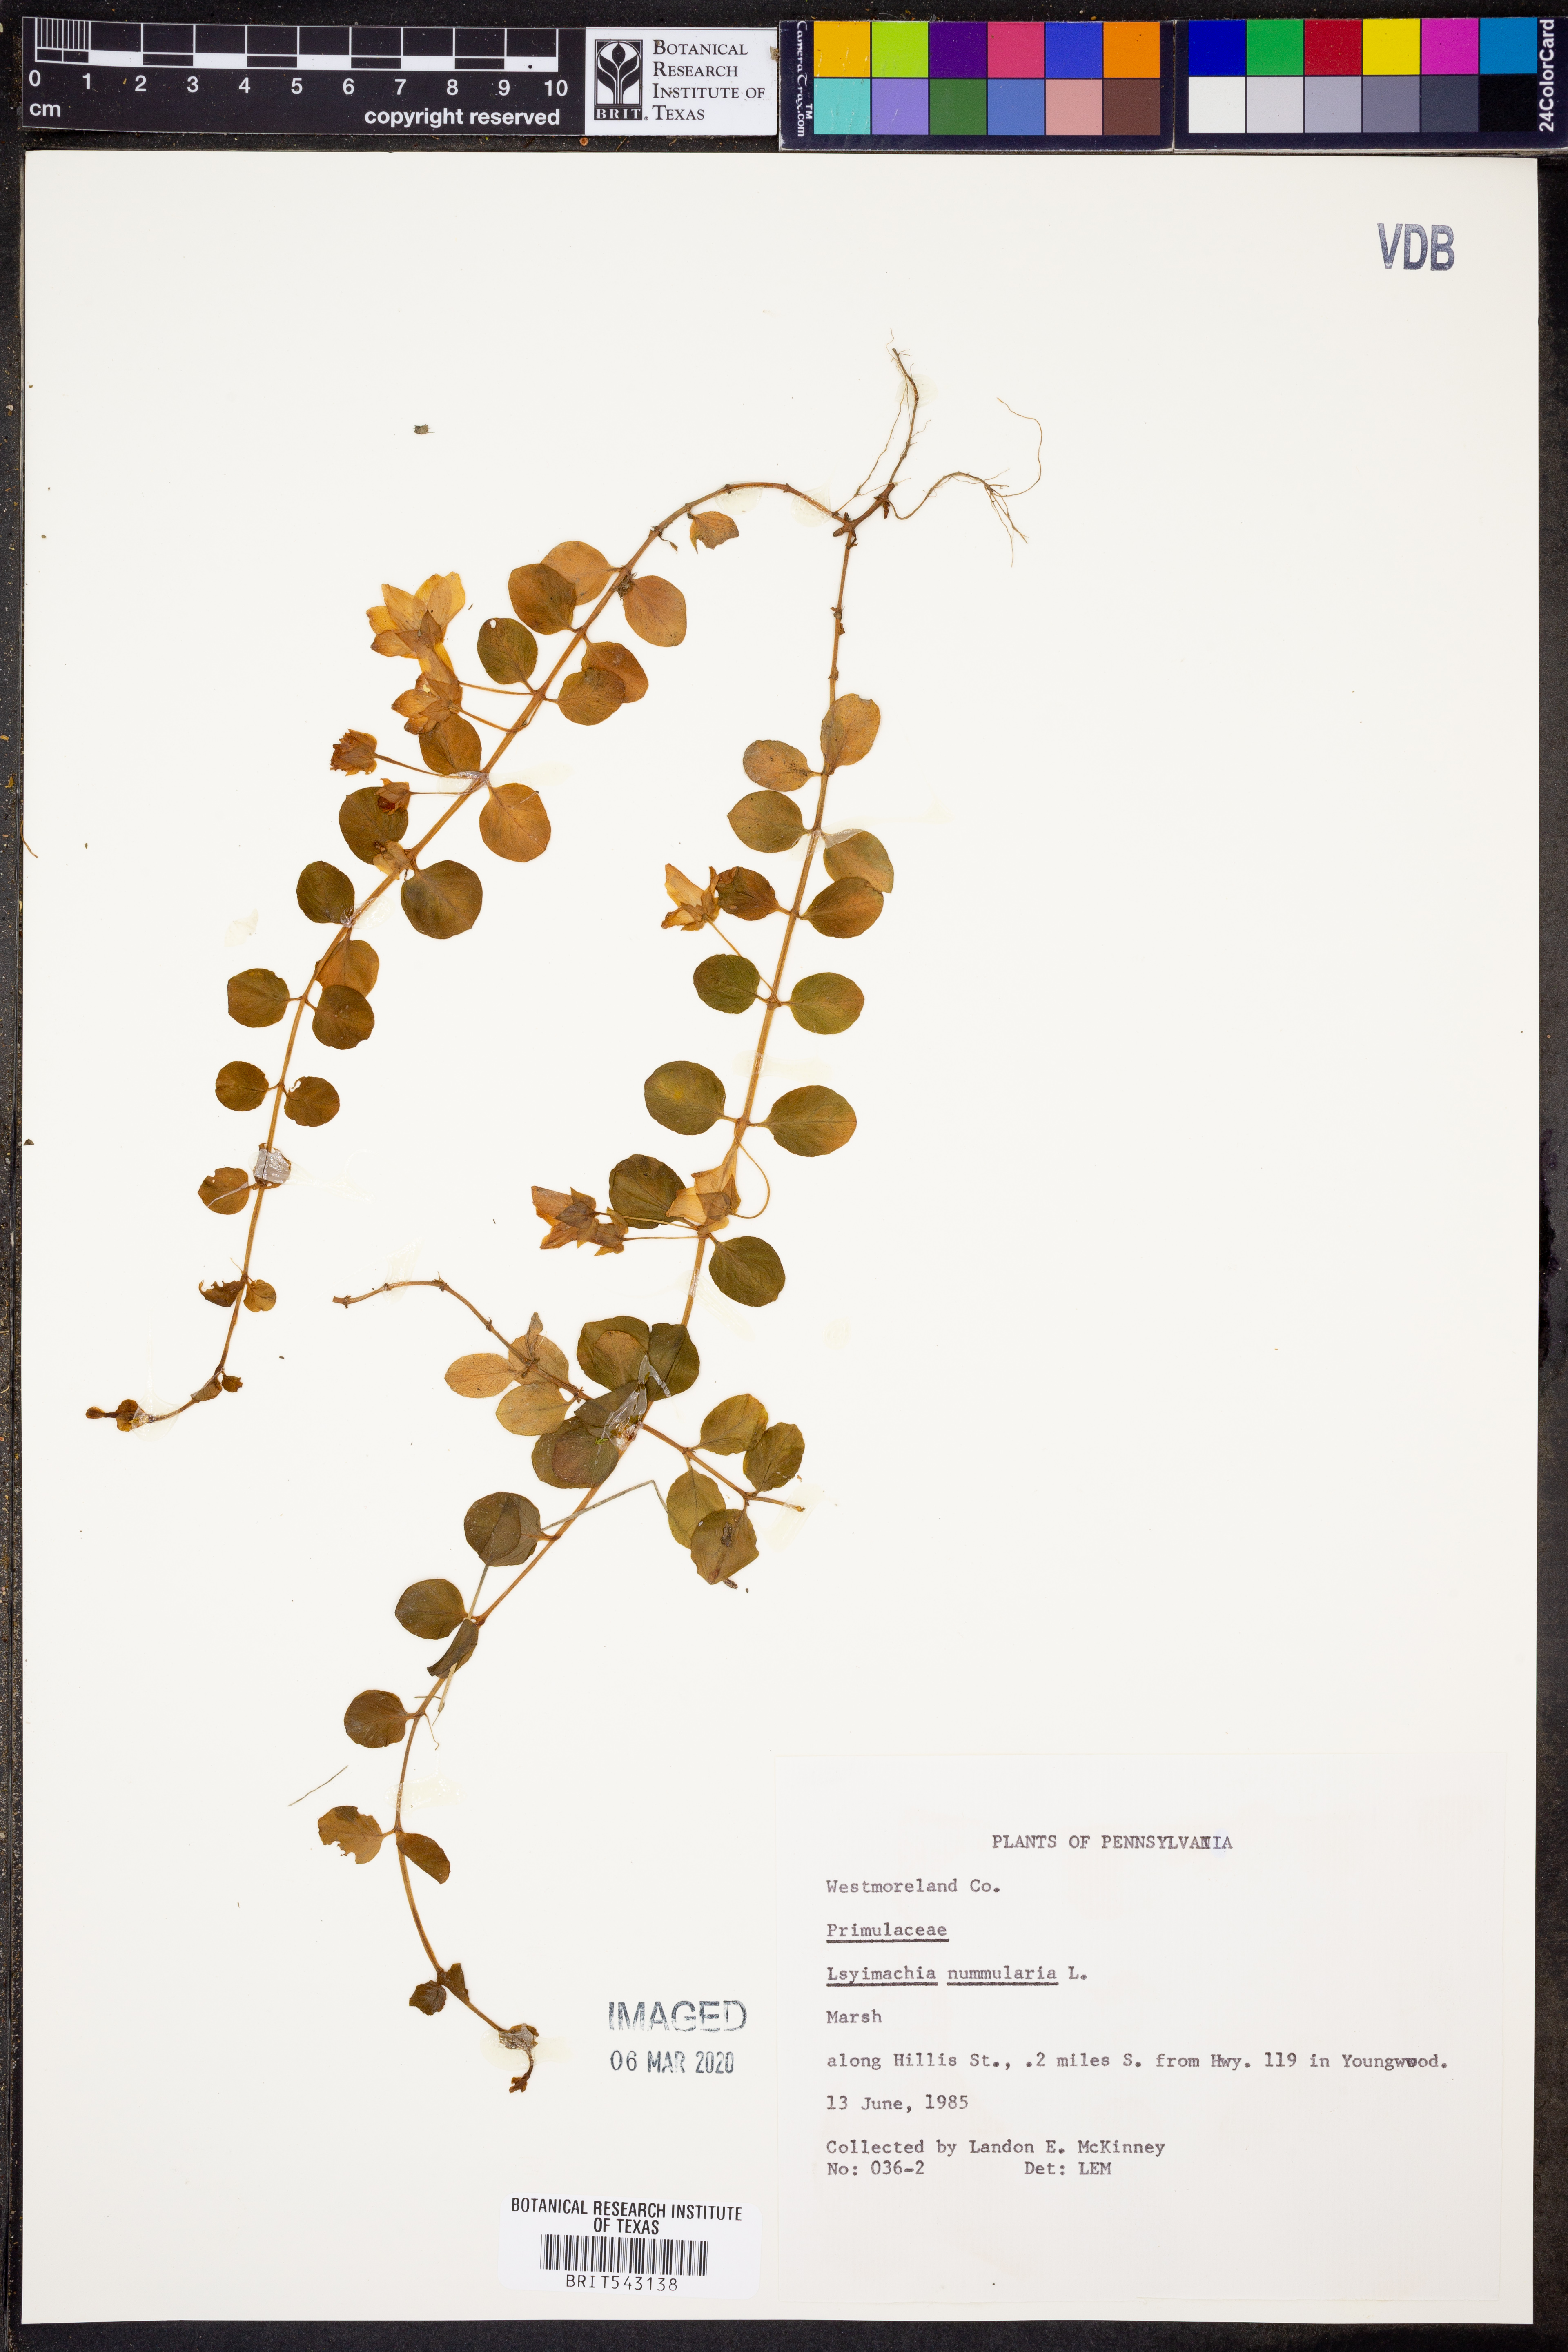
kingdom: Plantae
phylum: Tracheophyta
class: Magnoliopsida
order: Ericales
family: Primulaceae
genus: Lysimachia
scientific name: Lysimachia nummularia
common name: Moneywort
